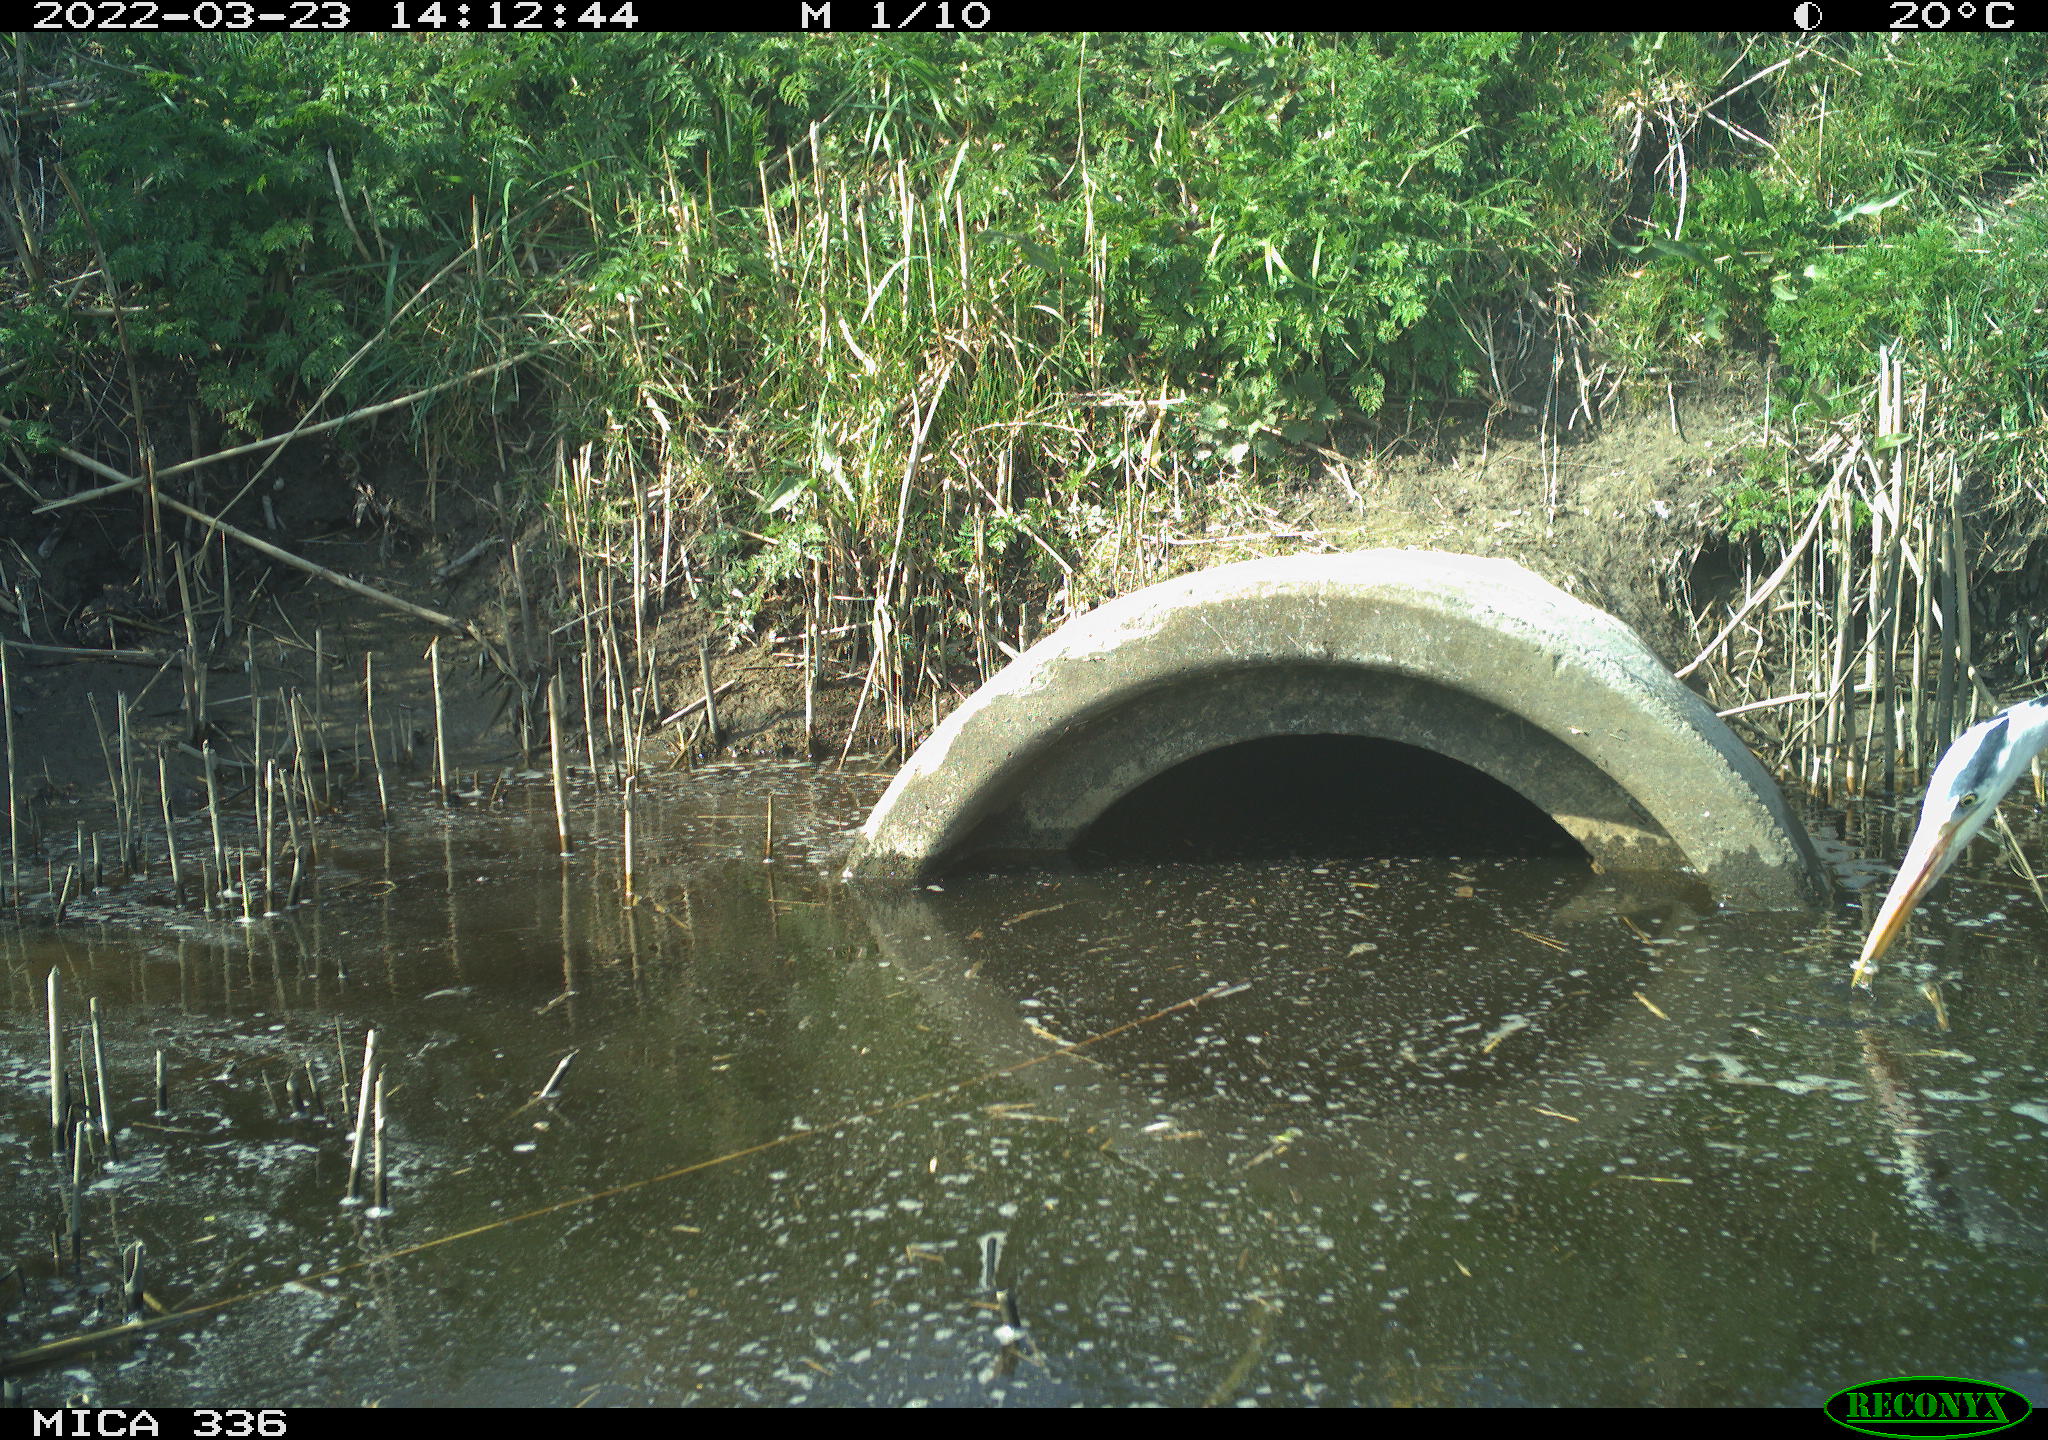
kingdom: Animalia
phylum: Chordata
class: Aves
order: Pelecaniformes
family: Ardeidae
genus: Ardea
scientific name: Ardea cinerea
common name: Grey heron
